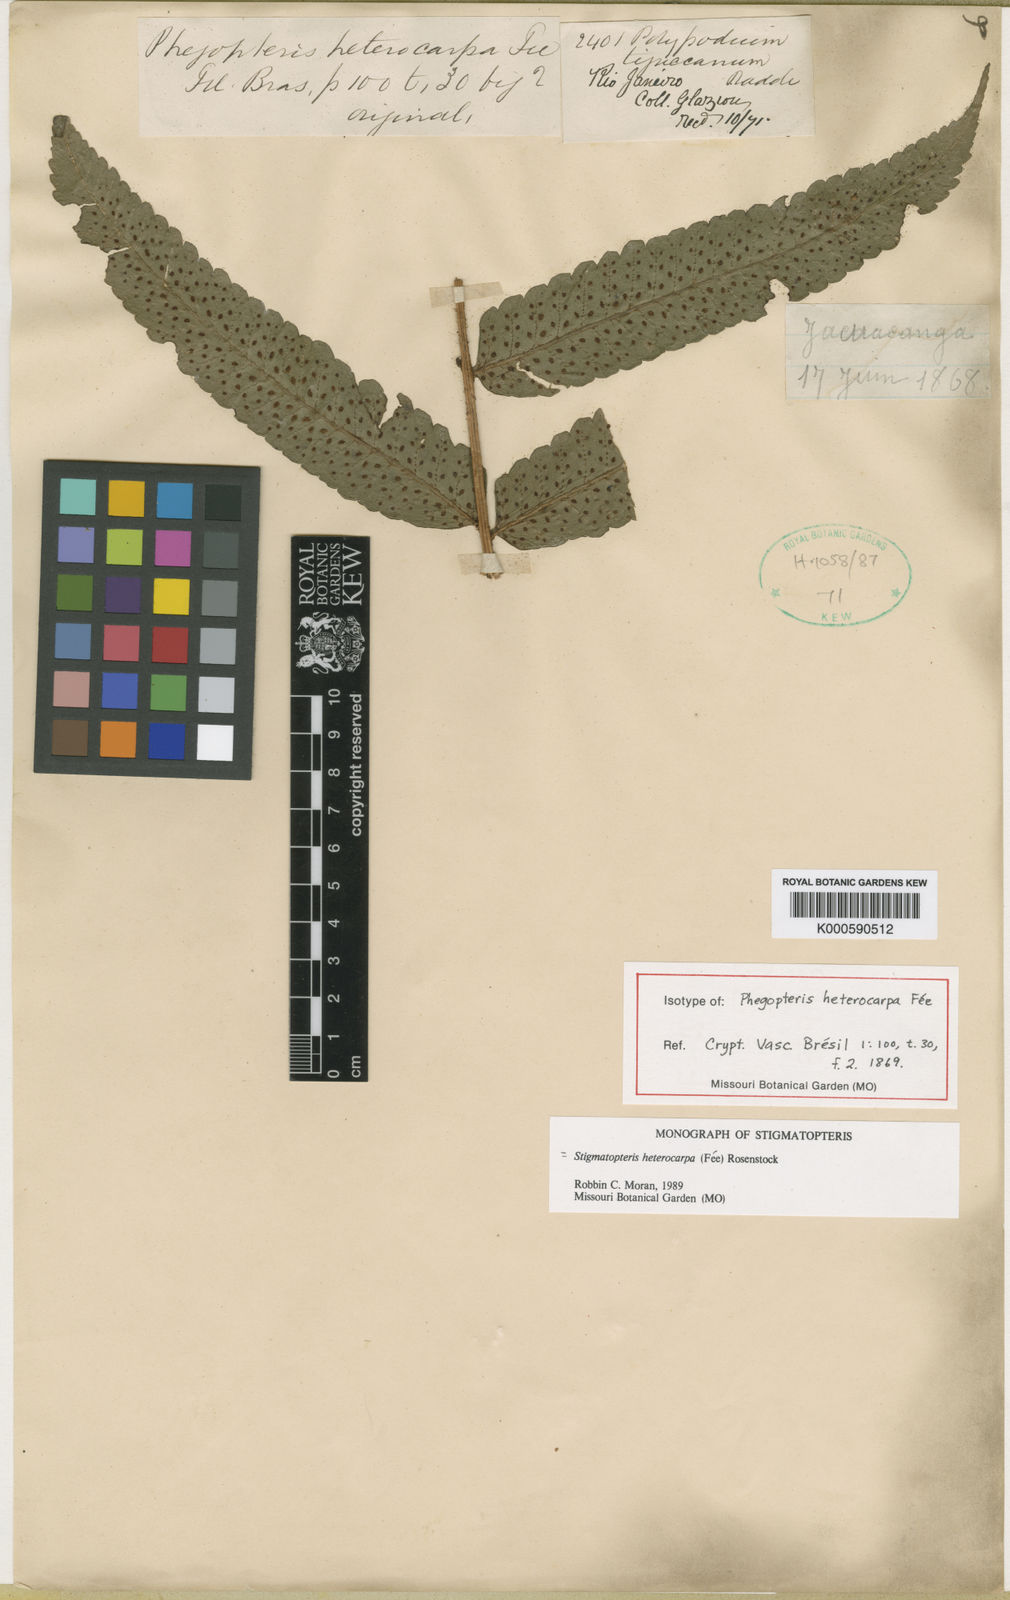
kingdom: Plantae
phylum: Tracheophyta
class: Polypodiopsida
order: Polypodiales
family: Dryopteridaceae
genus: Stigmatopteris
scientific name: Stigmatopteris
